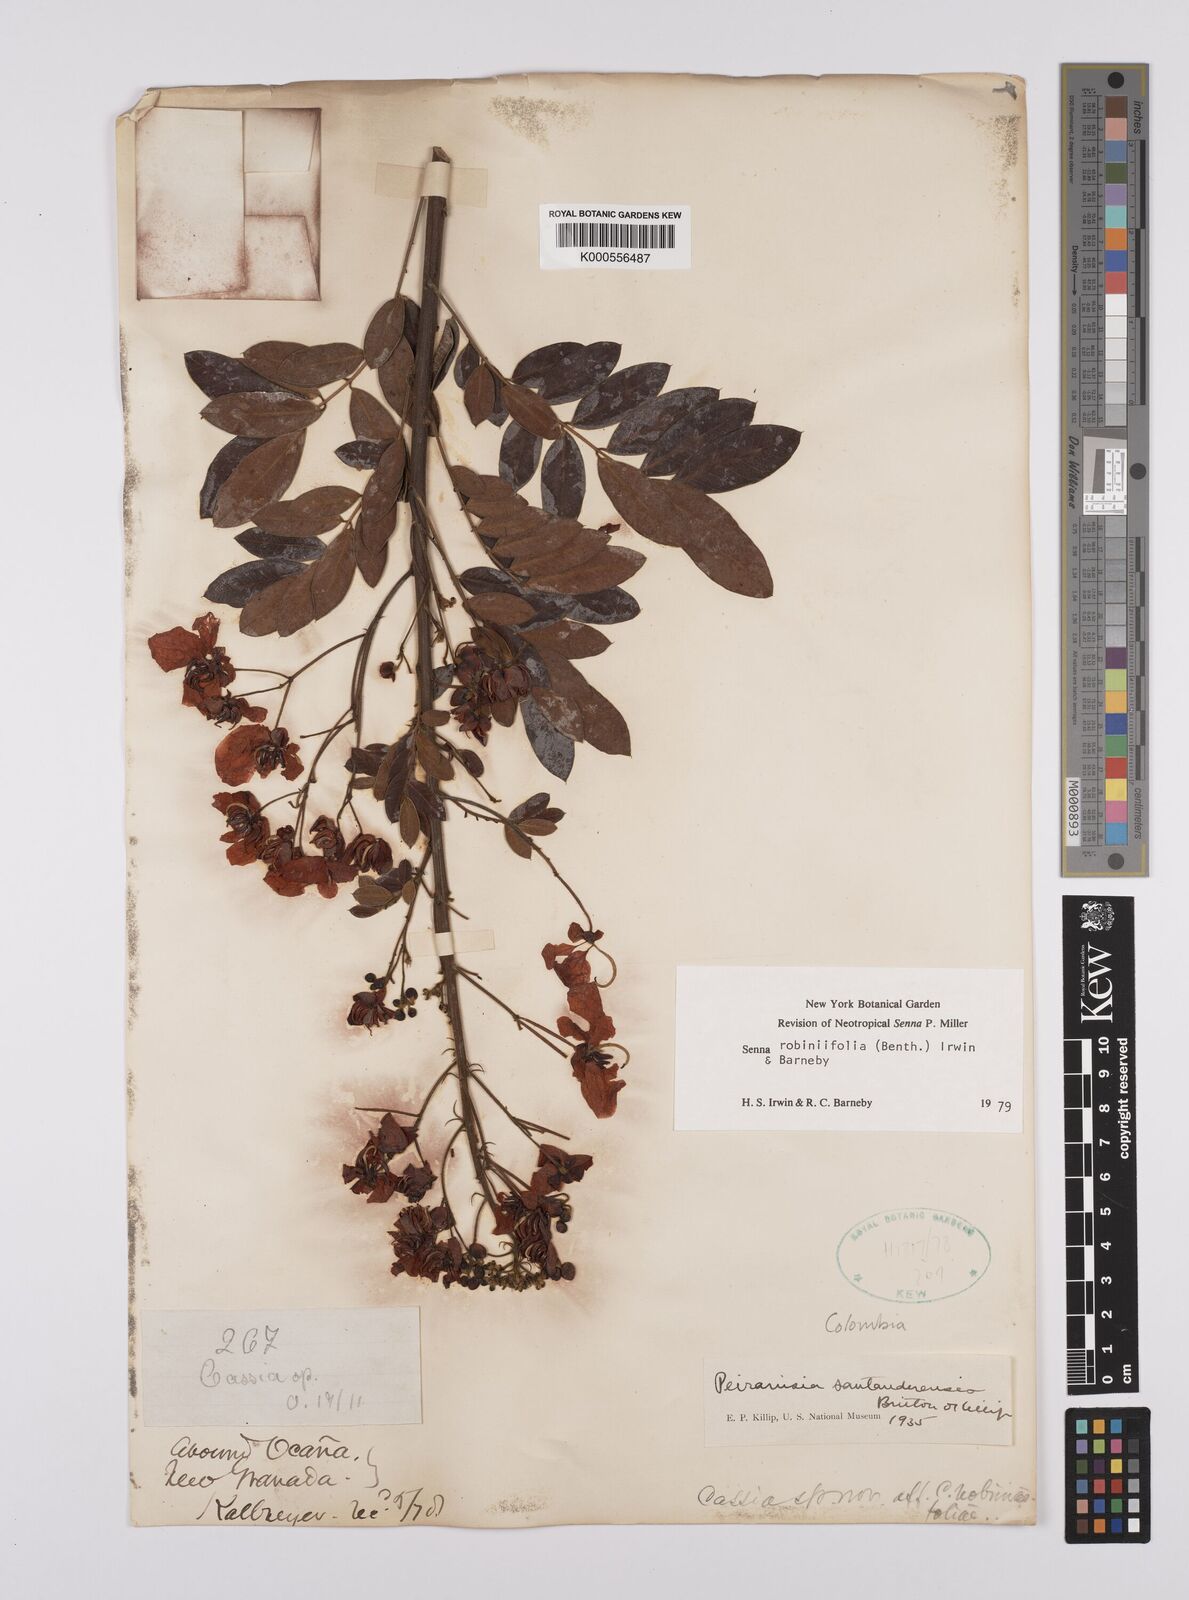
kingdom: Plantae
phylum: Tracheophyta
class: Magnoliopsida
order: Fabales
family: Fabaceae
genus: Senna
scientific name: Senna robiniifolia
